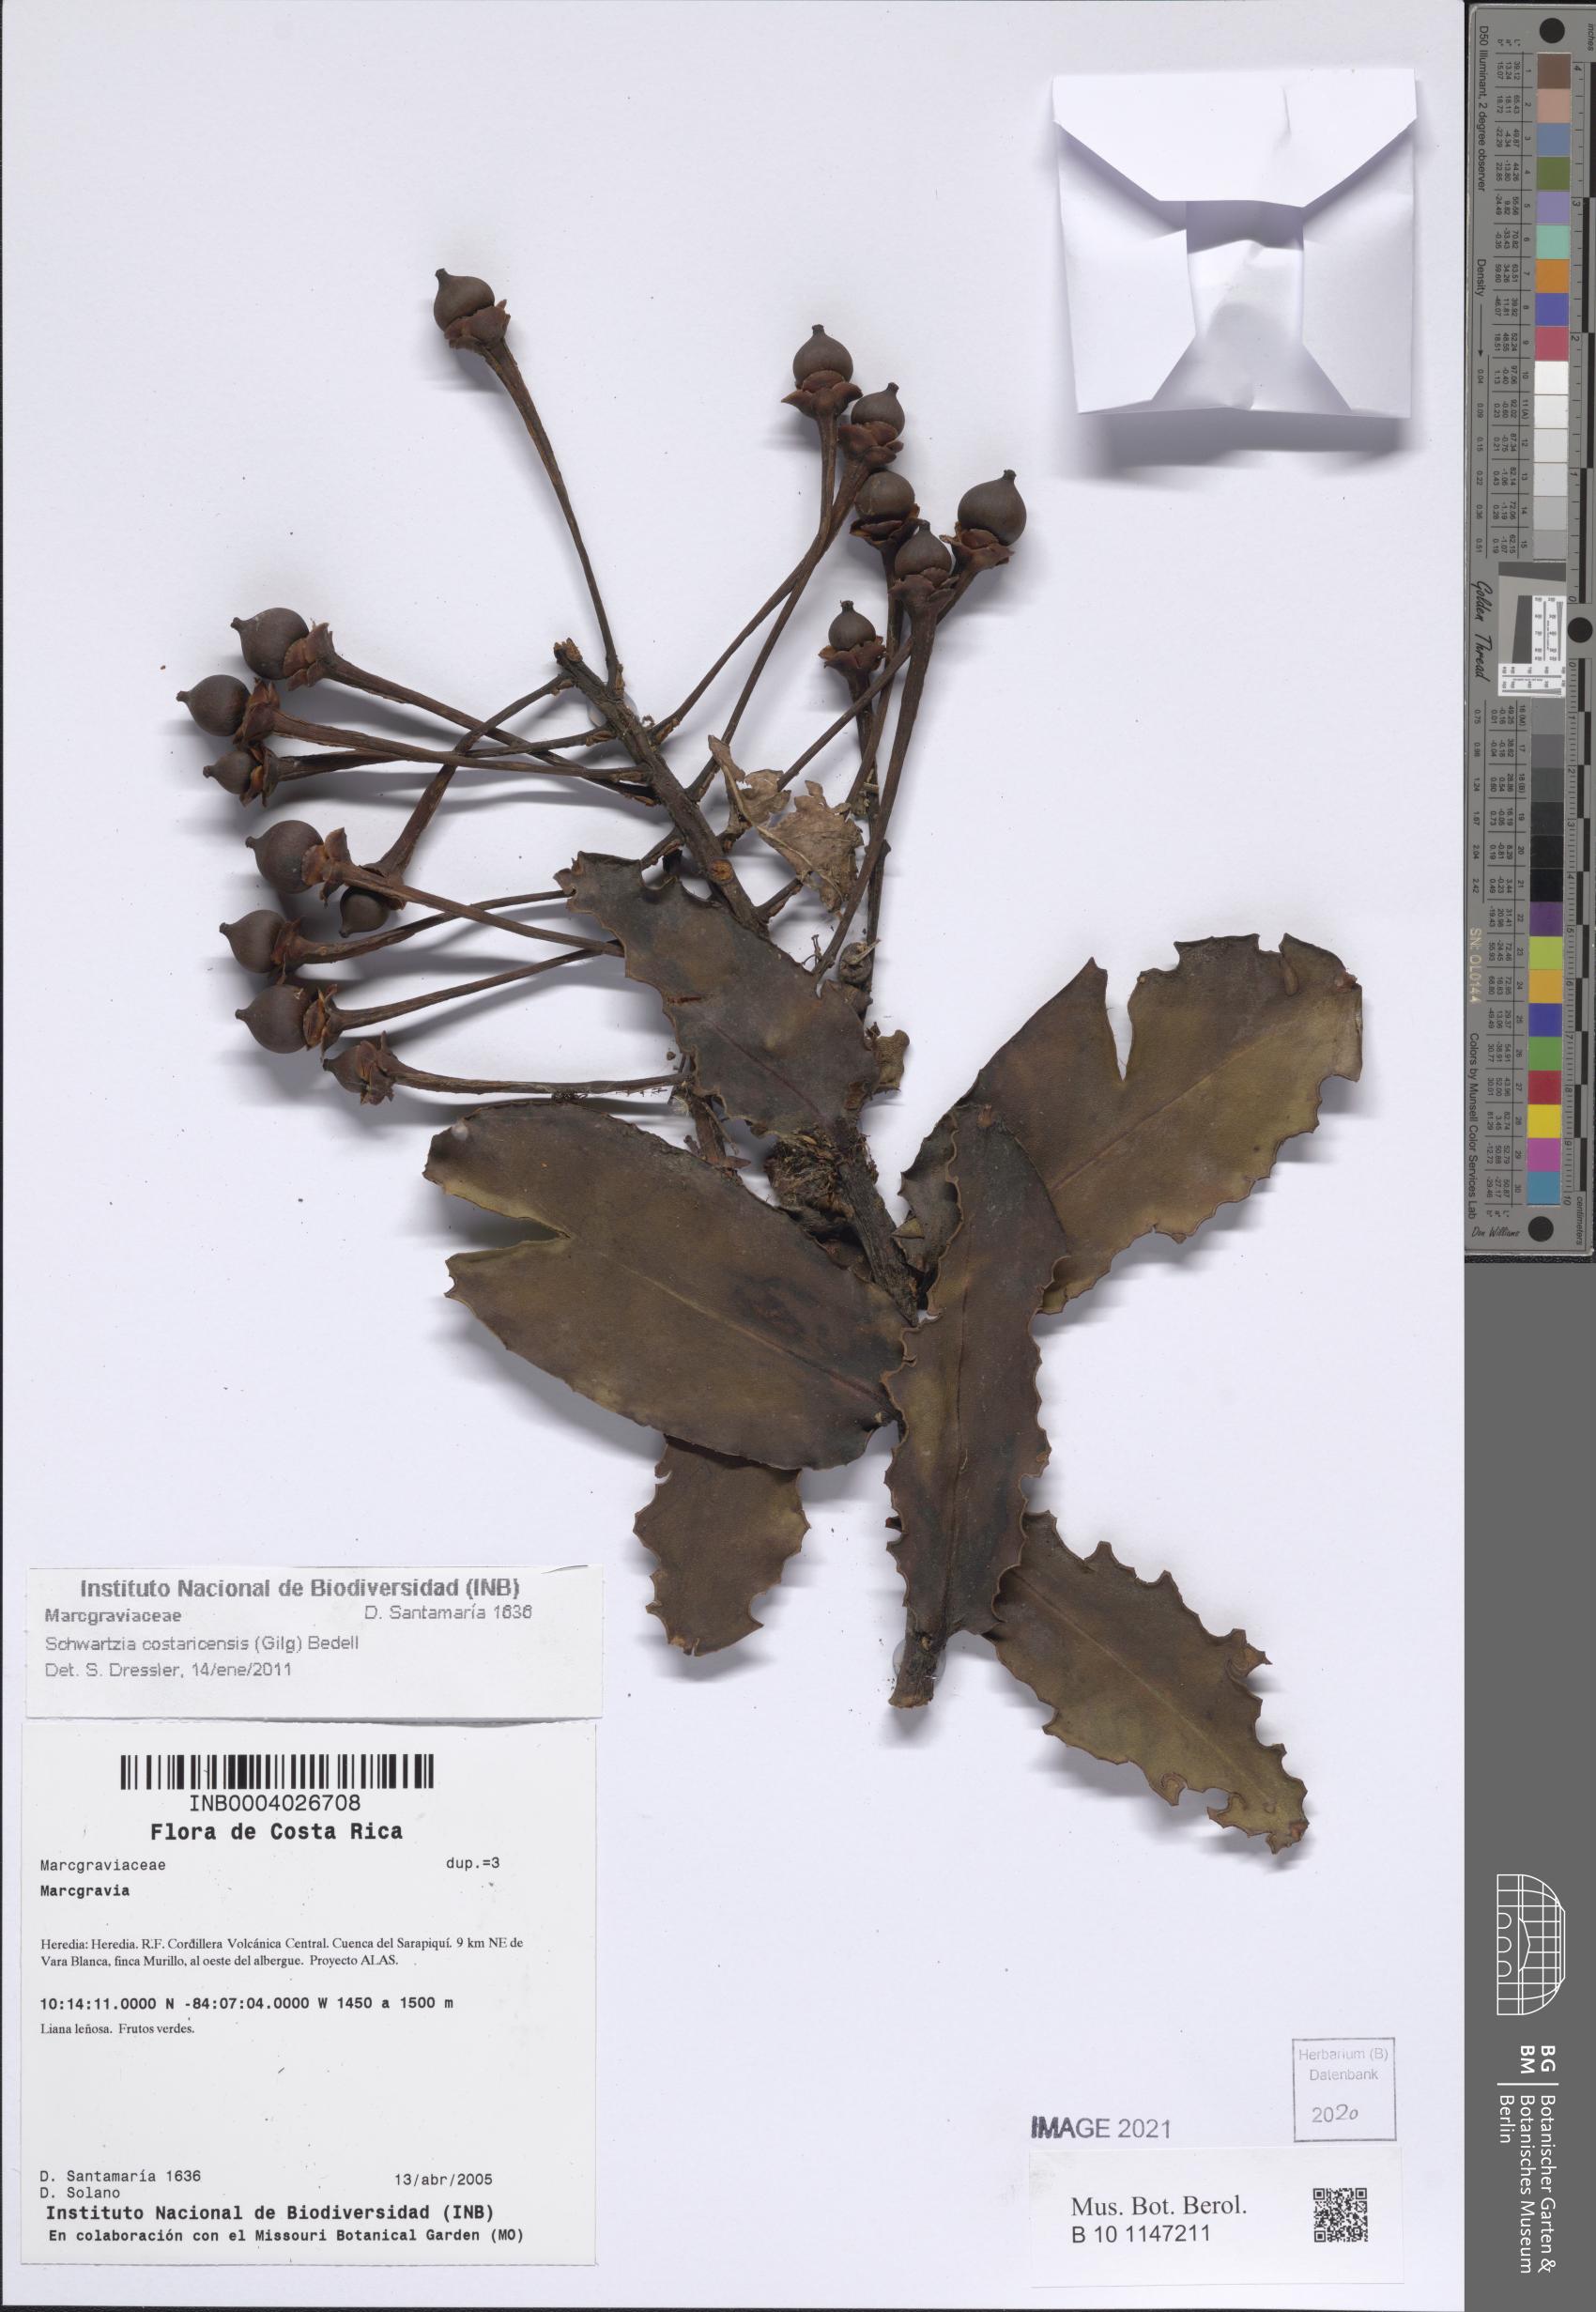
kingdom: Plantae
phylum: Tracheophyta
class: Magnoliopsida
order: Ericales
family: Marcgraviaceae
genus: Schwartzia
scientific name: Schwartzia costaricensis
